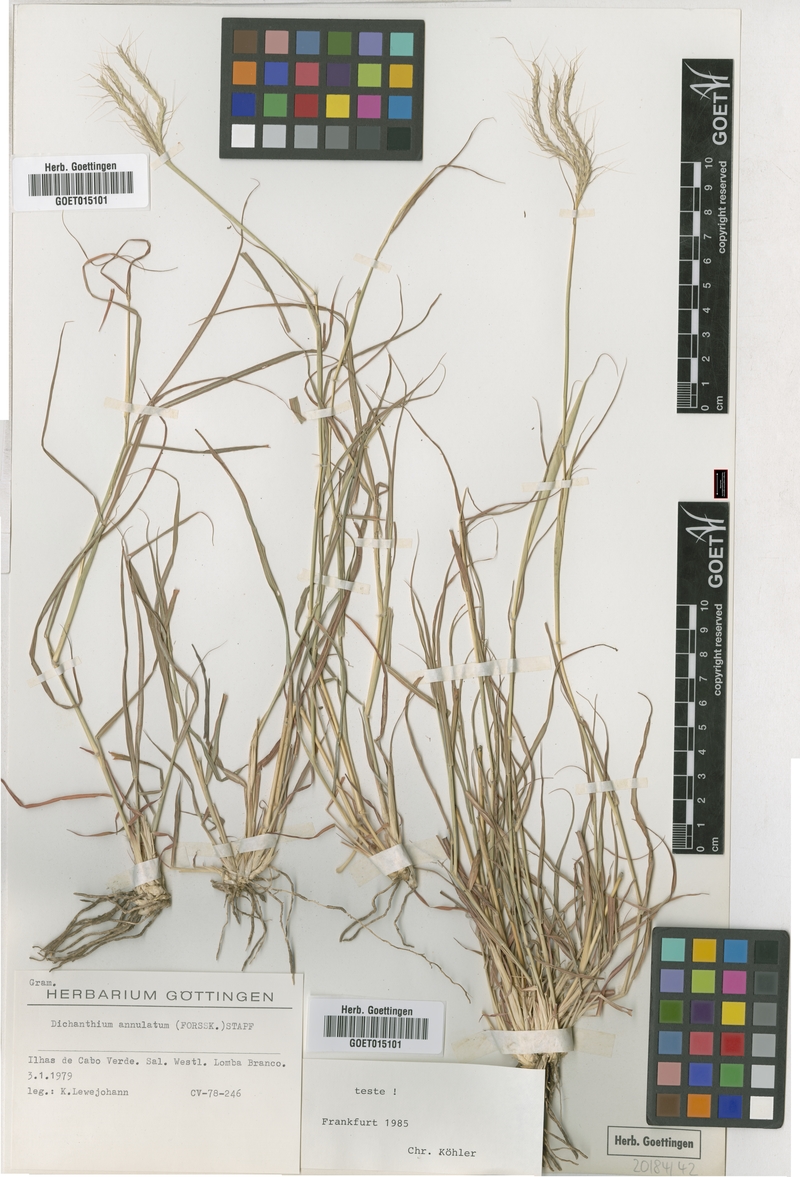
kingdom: Plantae
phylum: Tracheophyta
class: Liliopsida
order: Poales
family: Poaceae
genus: Dichanthium
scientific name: Dichanthium annulatum
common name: Kleberg's bluestem
